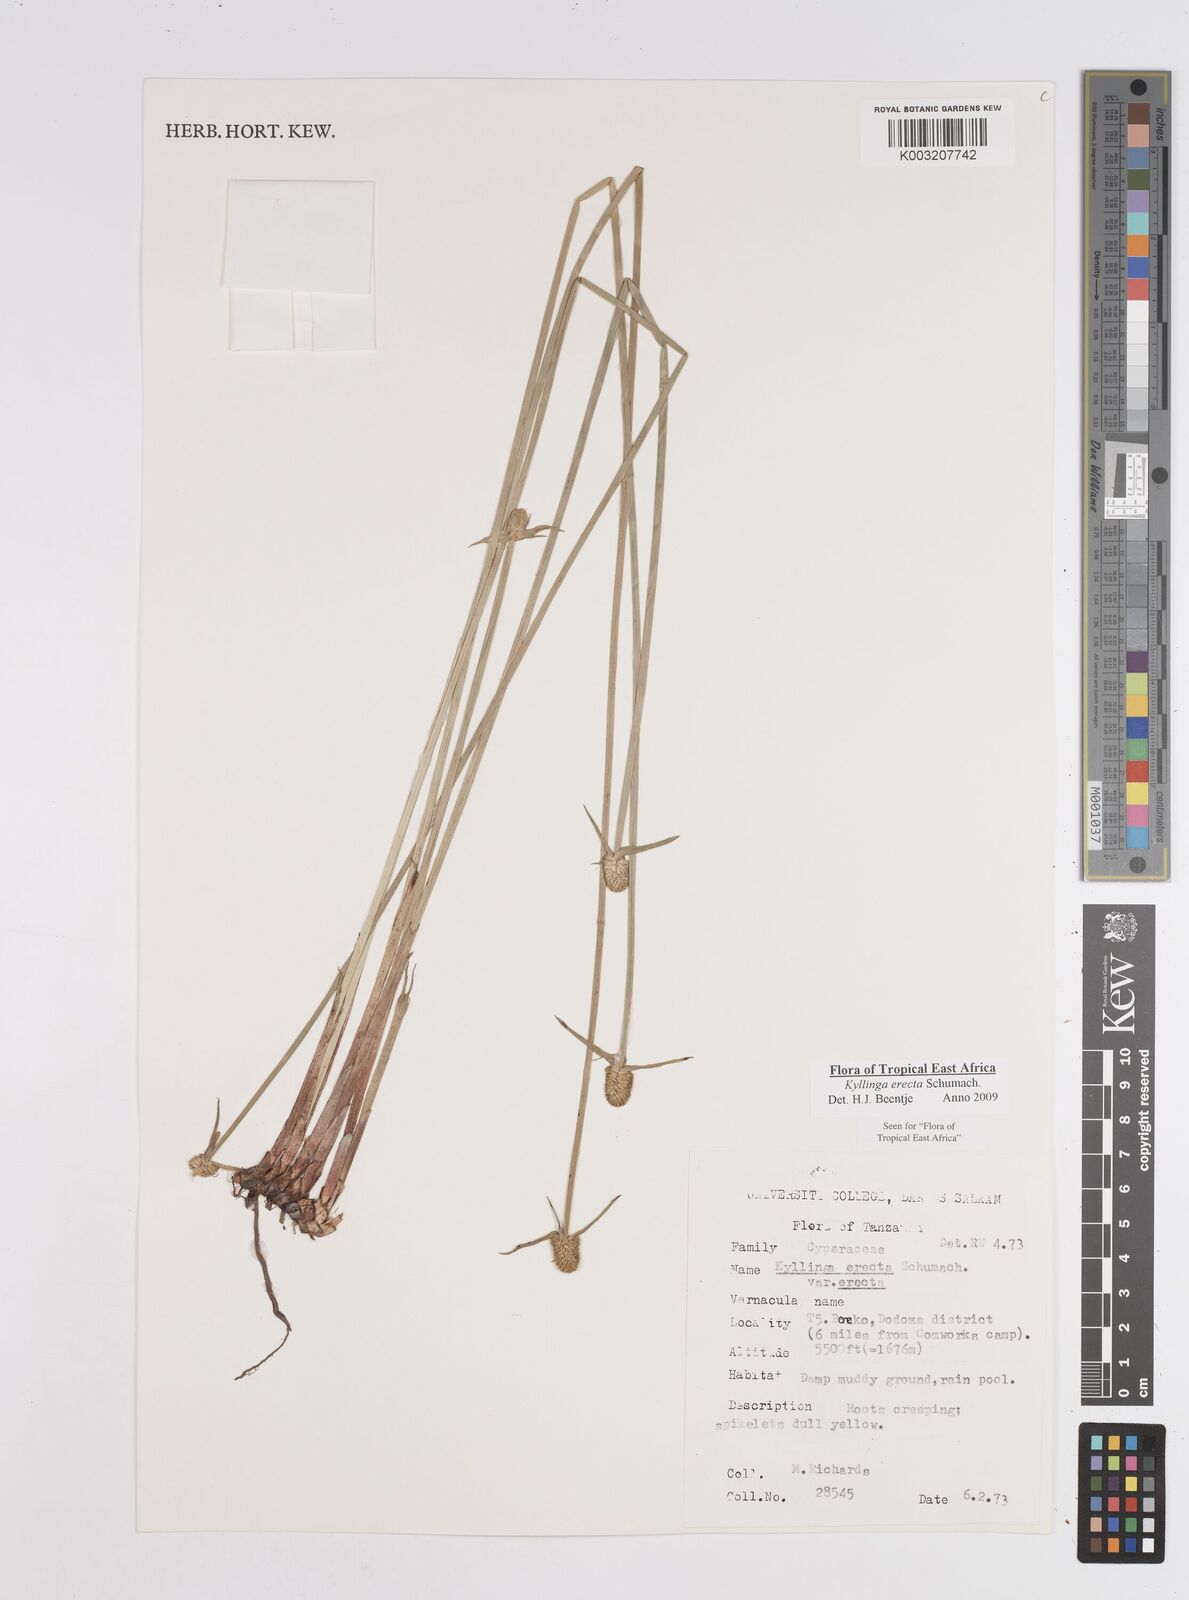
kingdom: Plantae
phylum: Tracheophyta
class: Liliopsida
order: Poales
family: Cyperaceae
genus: Cyperus
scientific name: Cyperus erectus
